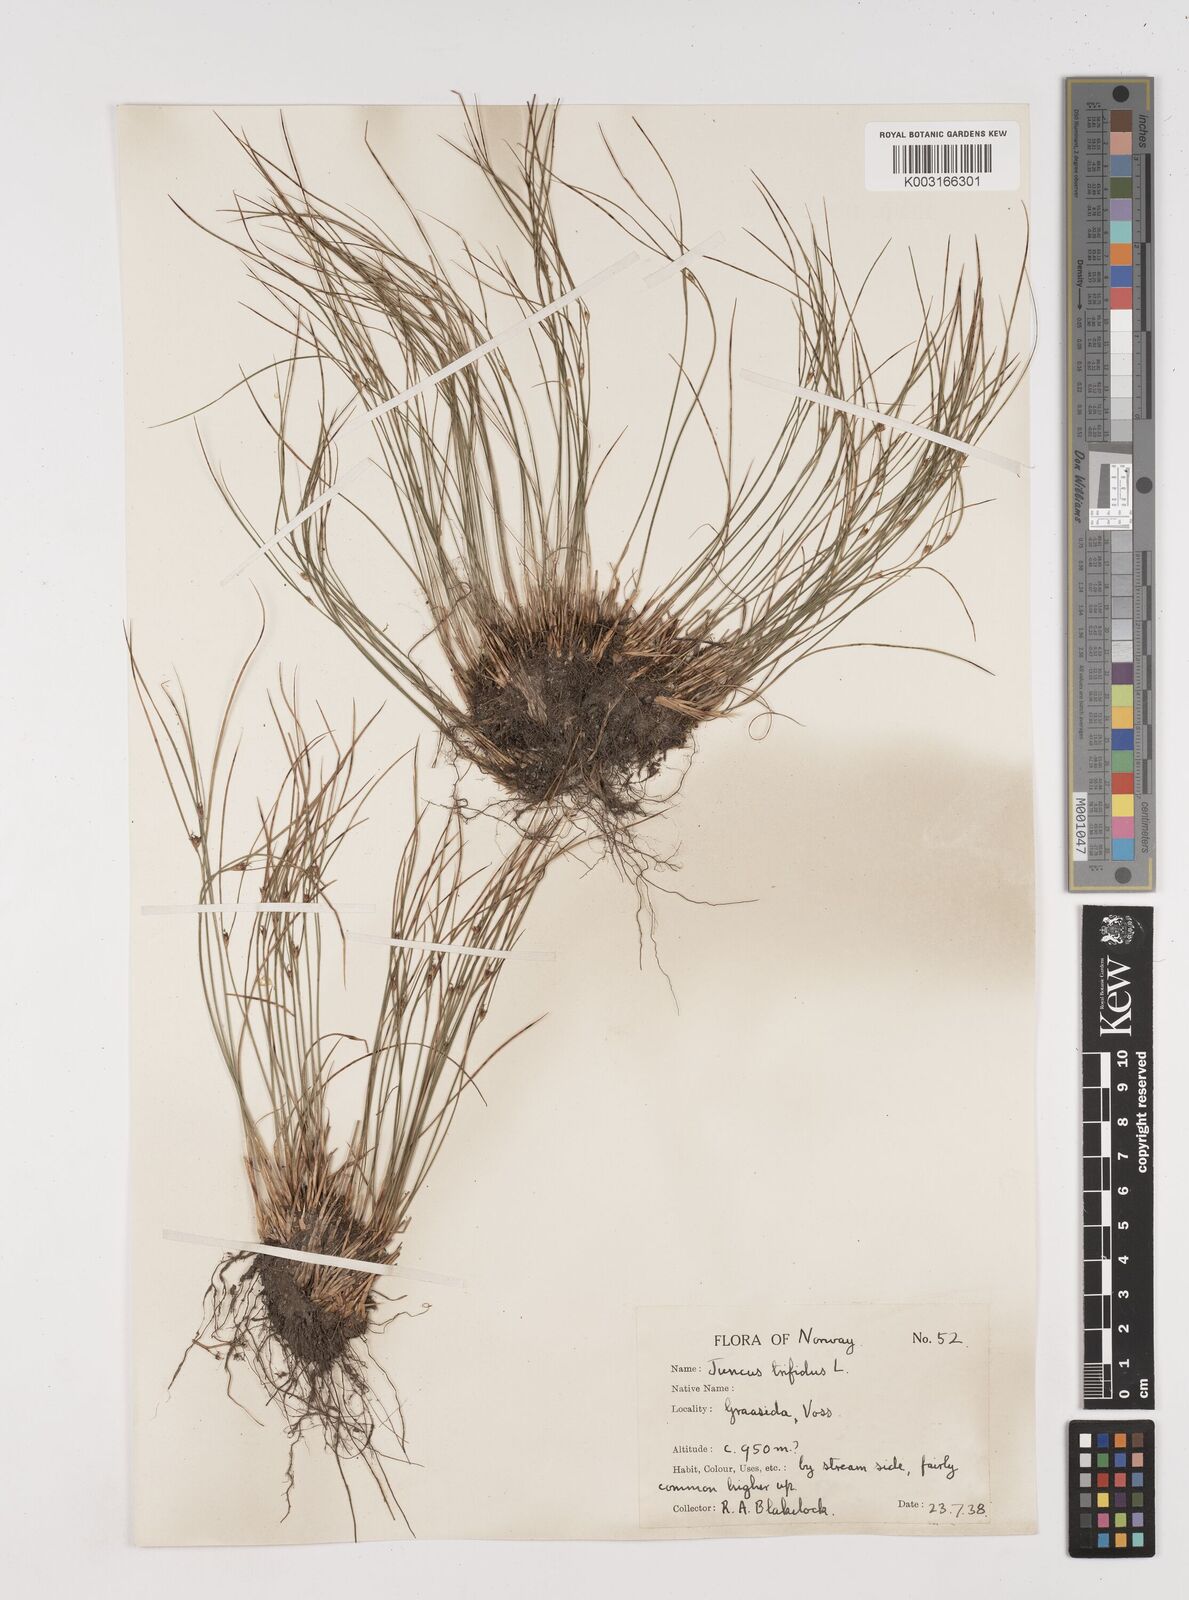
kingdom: Plantae
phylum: Tracheophyta
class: Liliopsida
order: Poales
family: Juncaceae
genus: Oreojuncus
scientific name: Oreojuncus trifidus
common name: Highland rush
